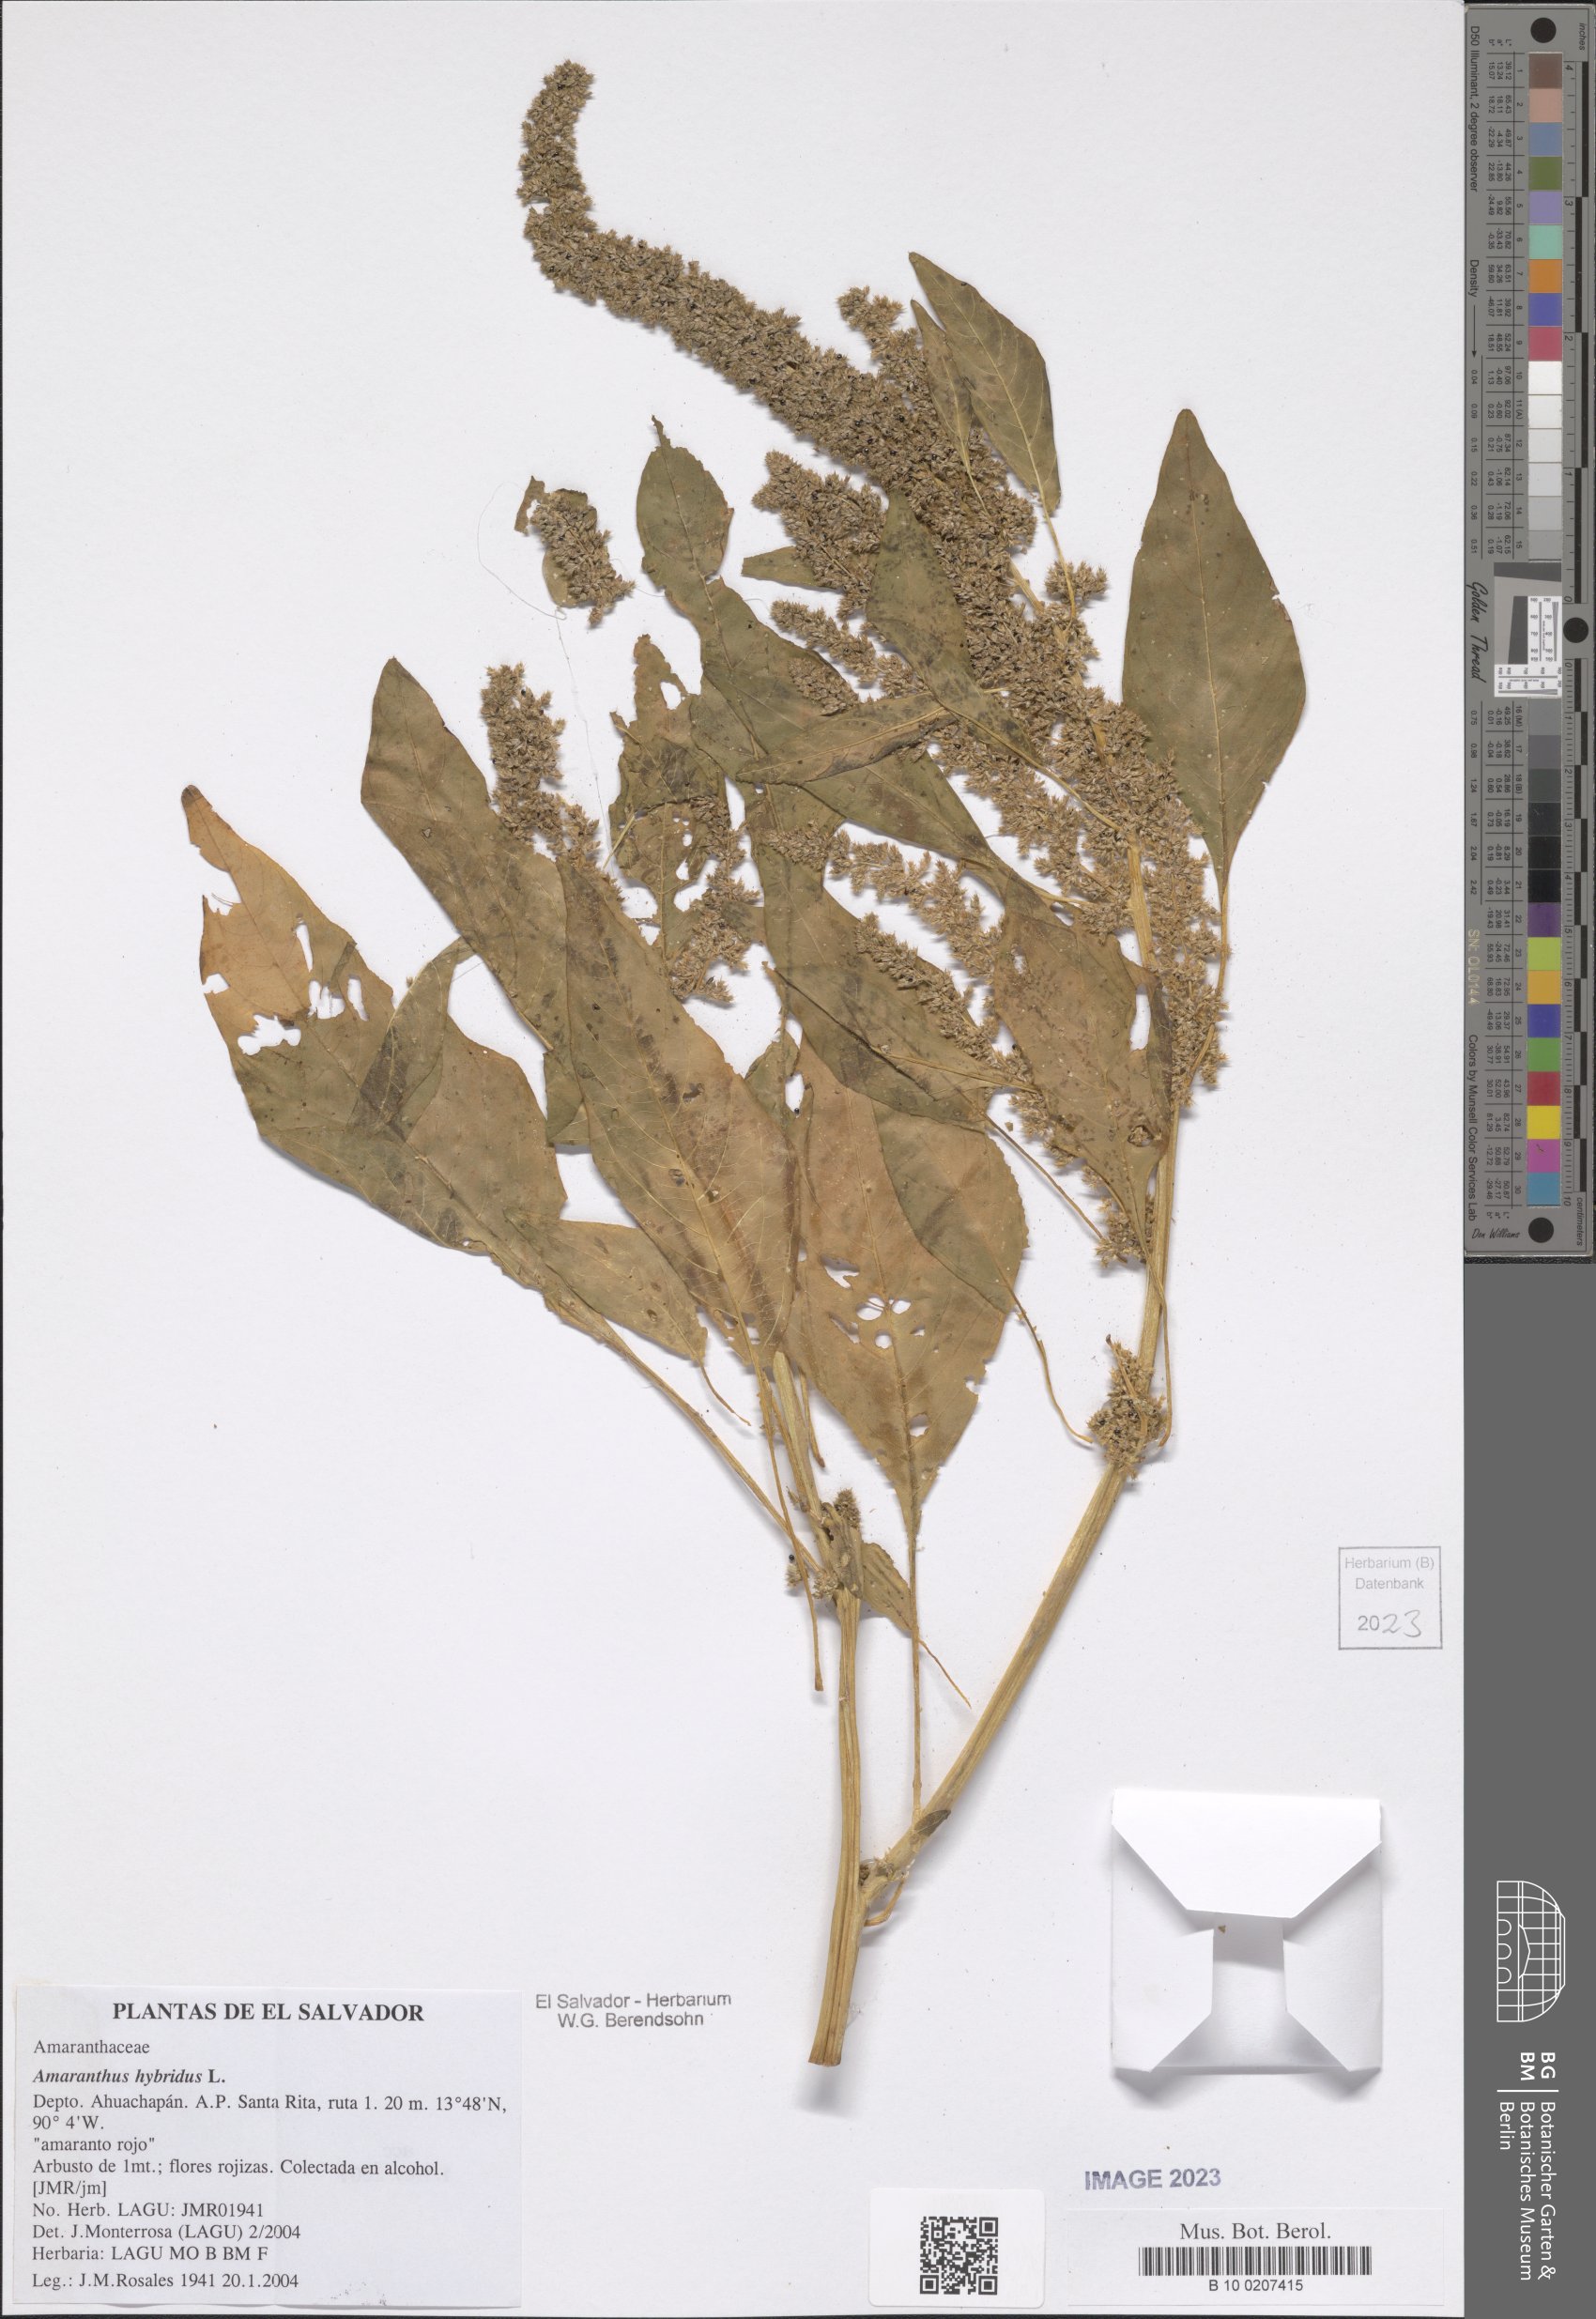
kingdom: Plantae
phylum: Tracheophyta
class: Magnoliopsida
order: Caryophyllales
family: Amaranthaceae
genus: Amaranthus
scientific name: Amaranthus hybridus
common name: Green amaranth
